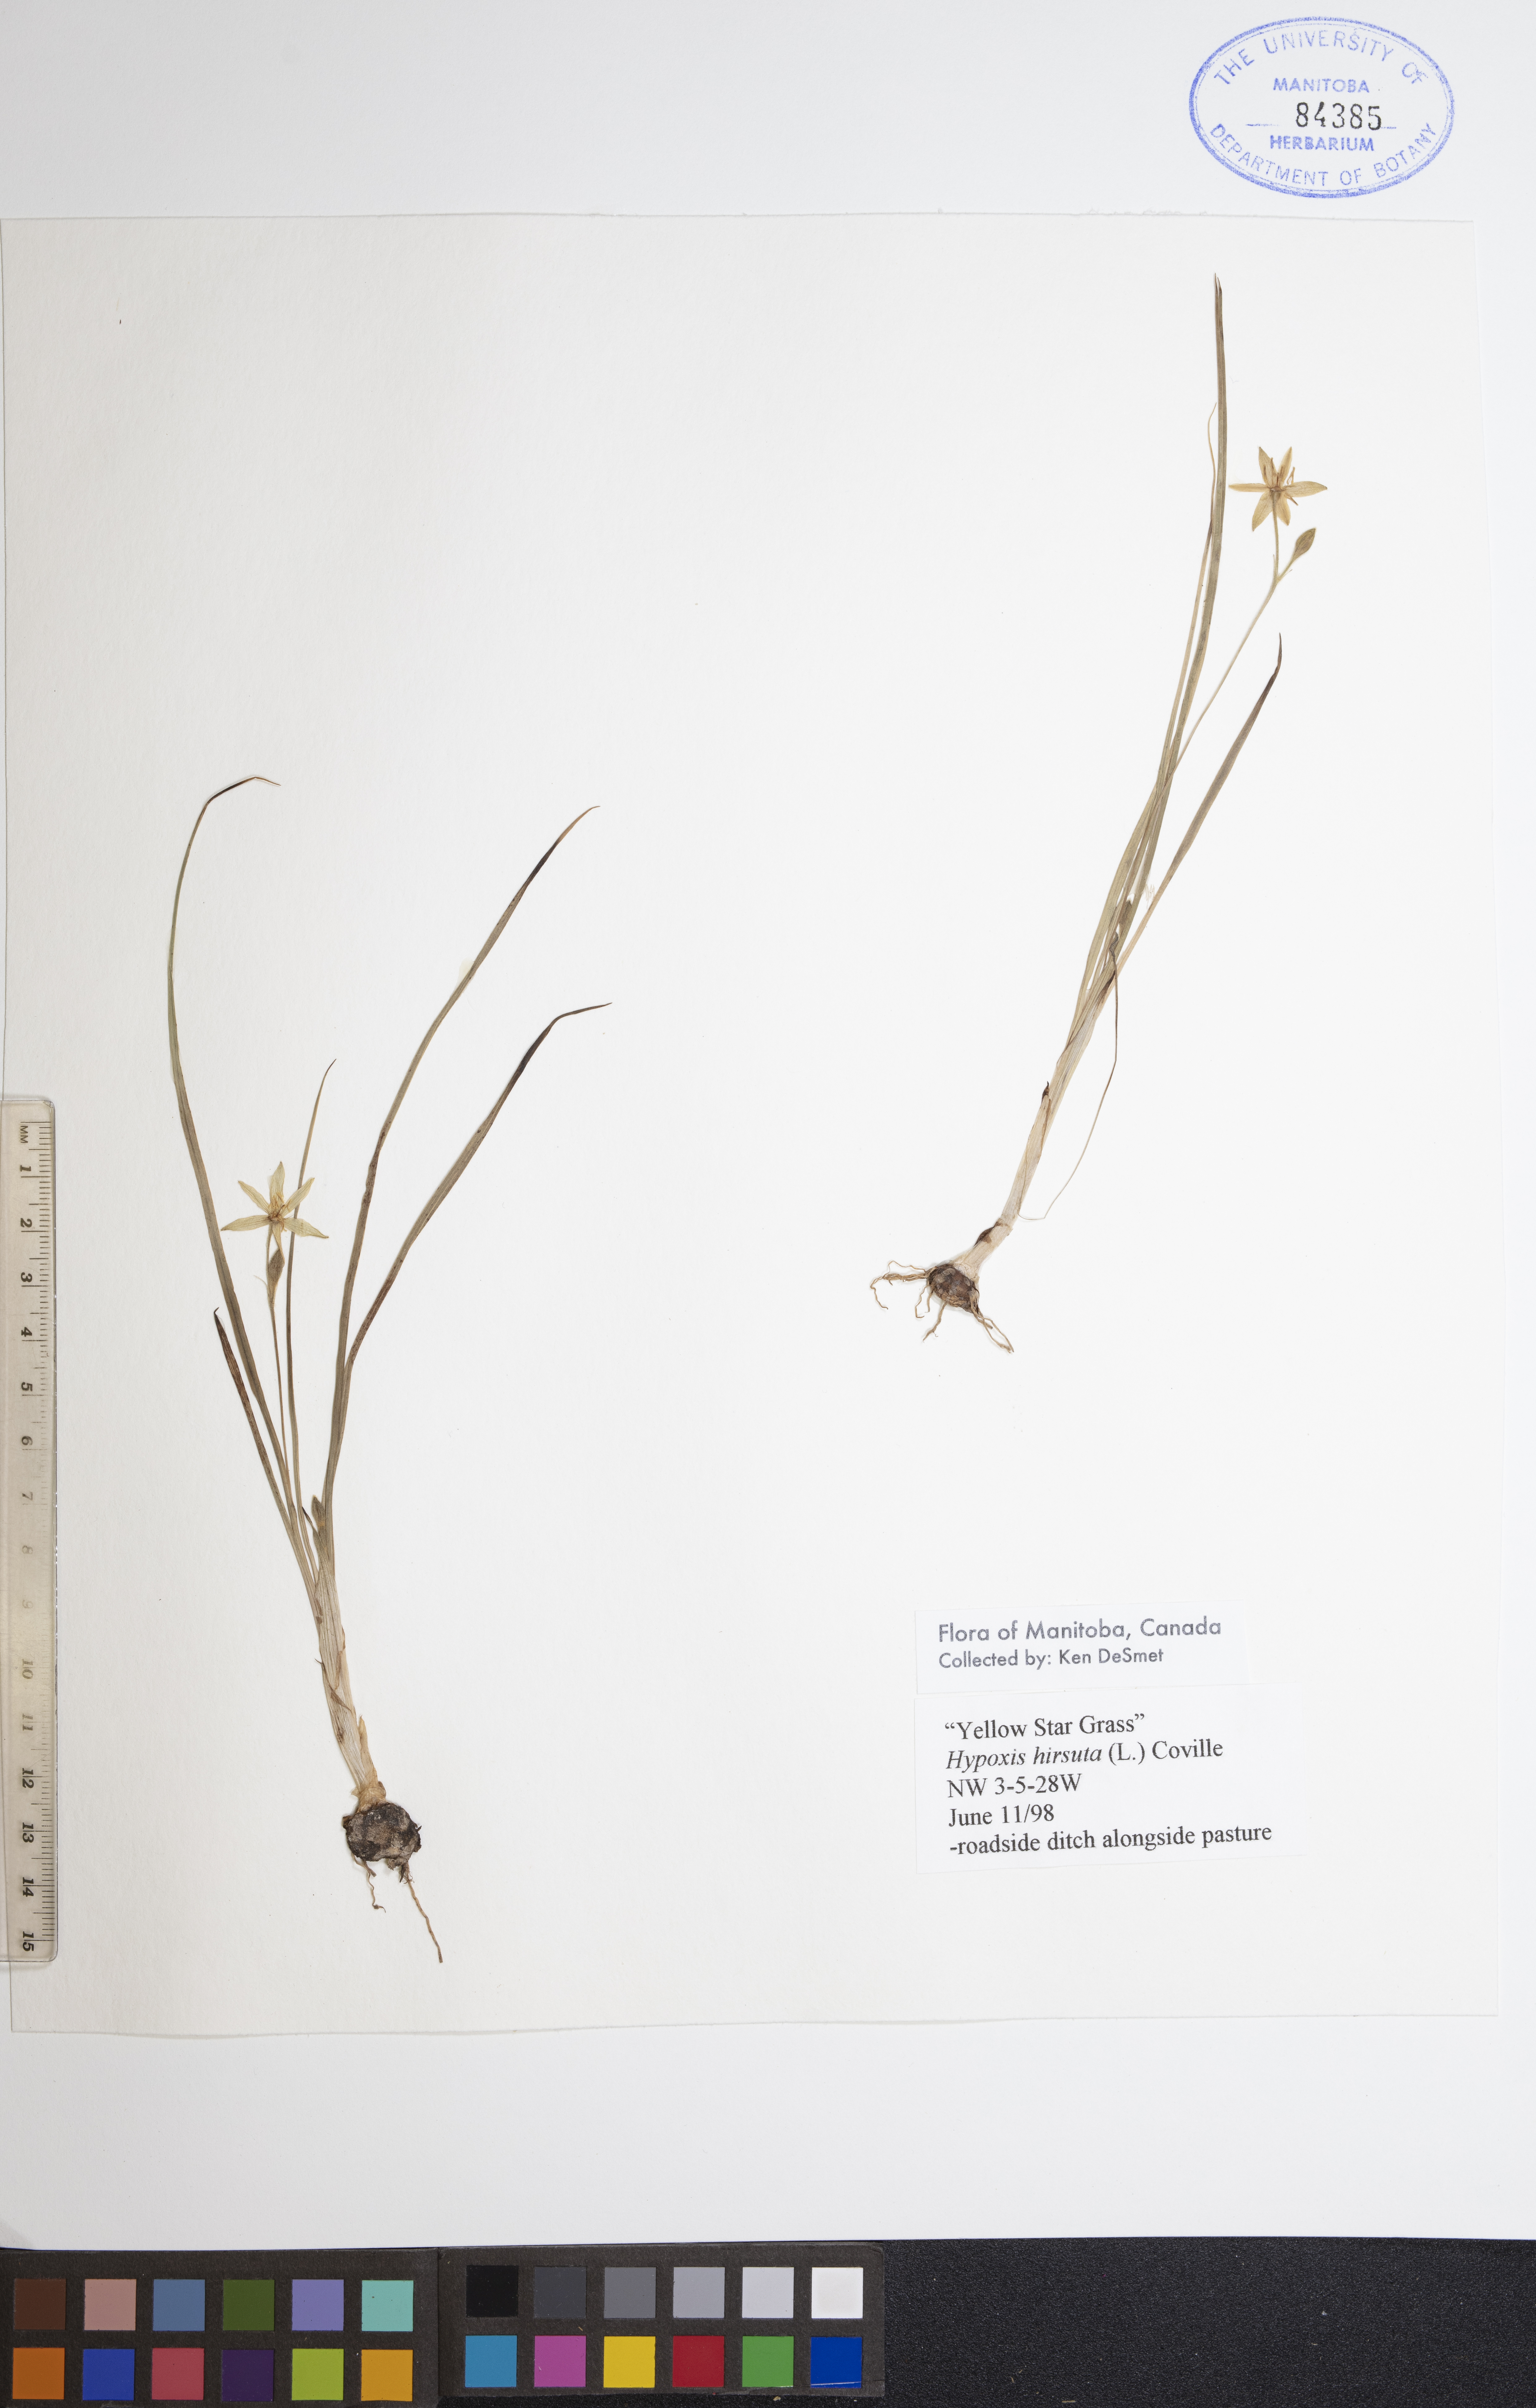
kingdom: Plantae
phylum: Tracheophyta
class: Liliopsida
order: Asparagales
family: Hypoxidaceae
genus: Hypoxis
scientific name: Hypoxis hirsuta
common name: Common goldstar
